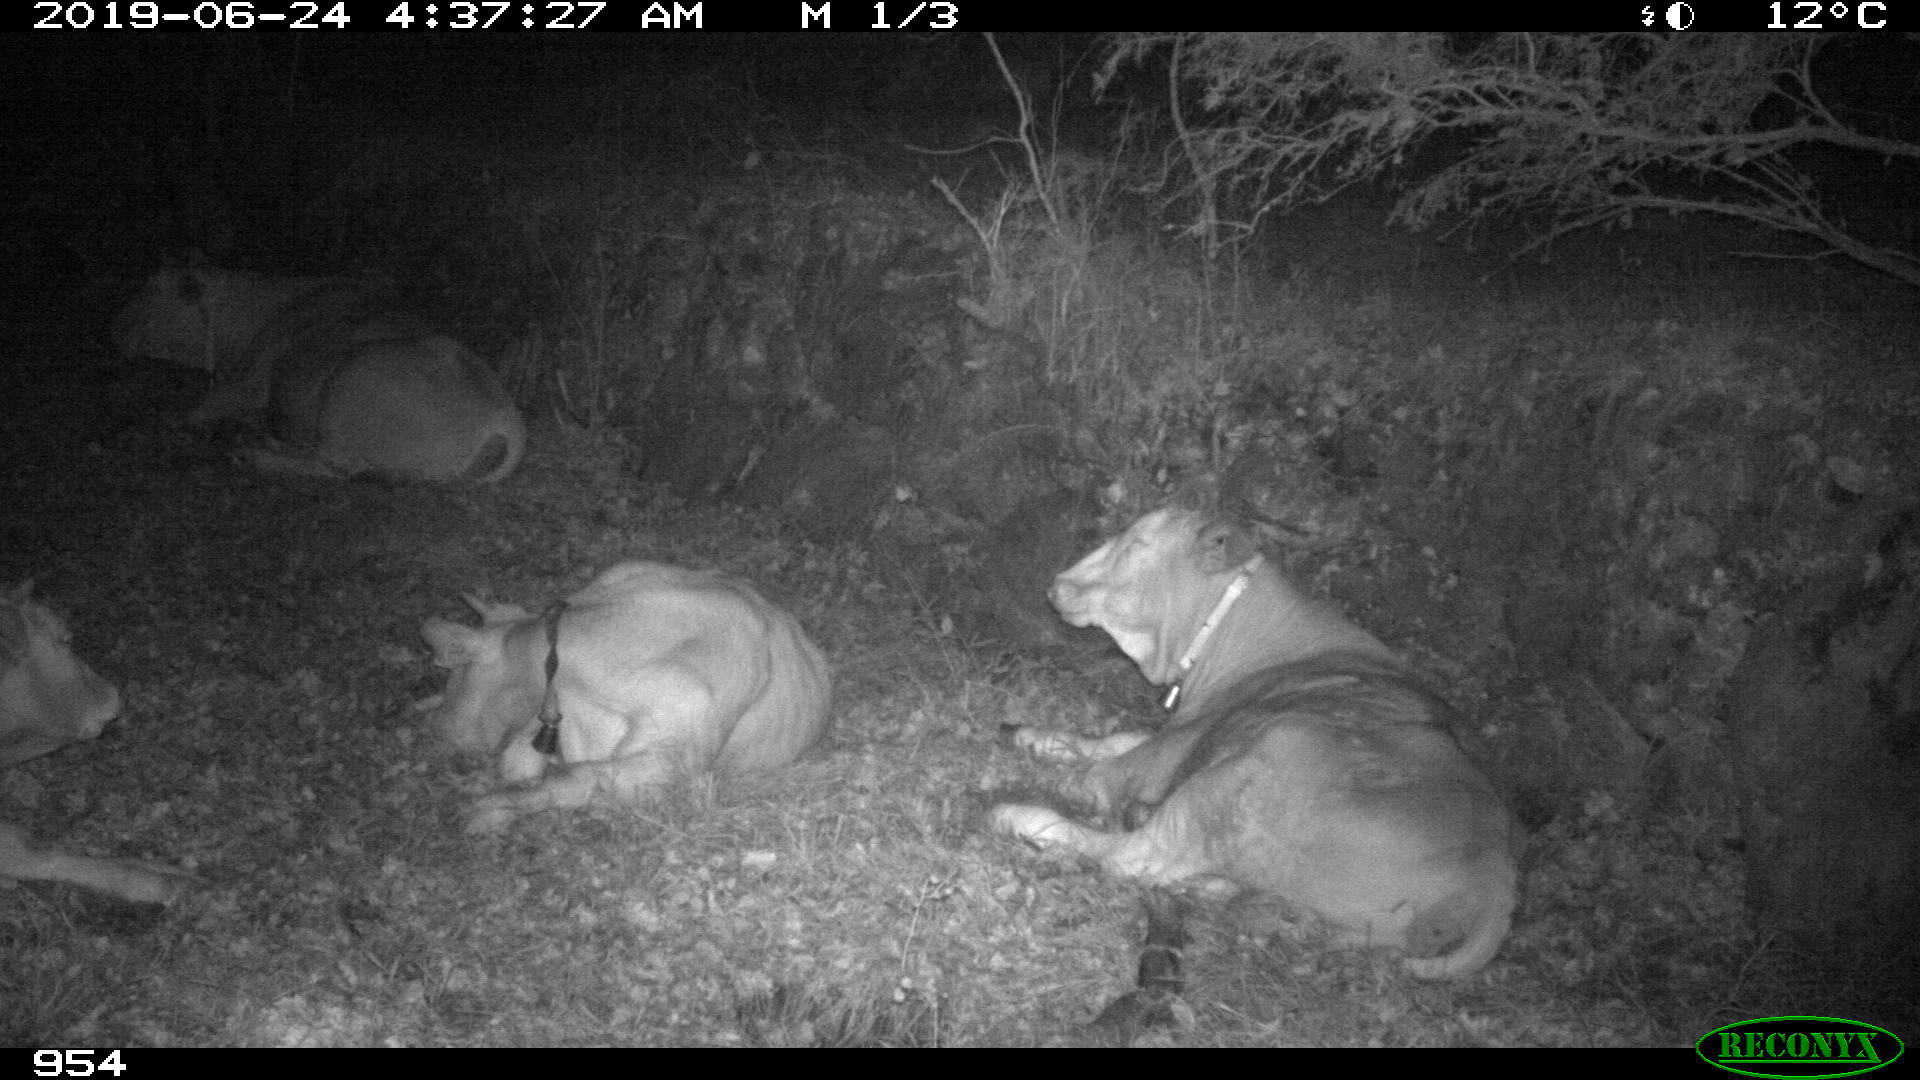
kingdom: Animalia
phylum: Chordata
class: Mammalia
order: Artiodactyla
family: Bovidae
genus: Bos
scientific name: Bos taurus
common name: Domesticated cattle
